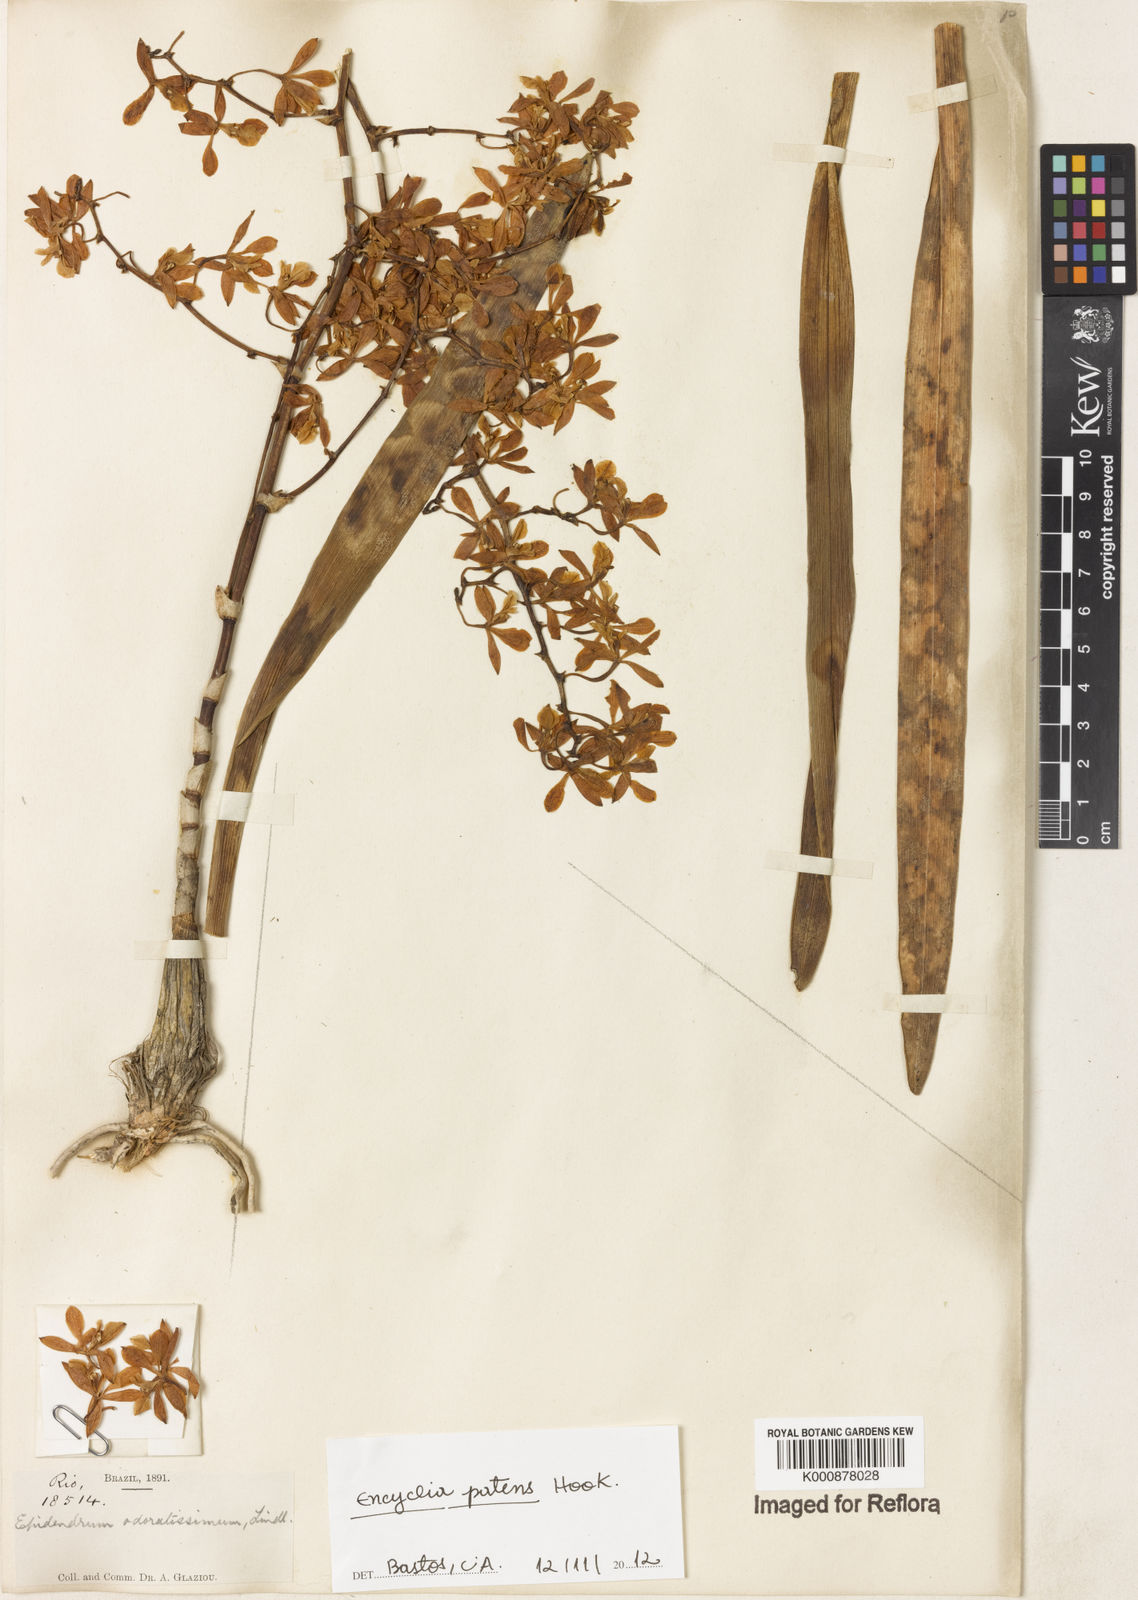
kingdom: Plantae
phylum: Tracheophyta
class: Liliopsida
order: Asparagales
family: Orchidaceae
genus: Encyclia
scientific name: Encyclia patens
